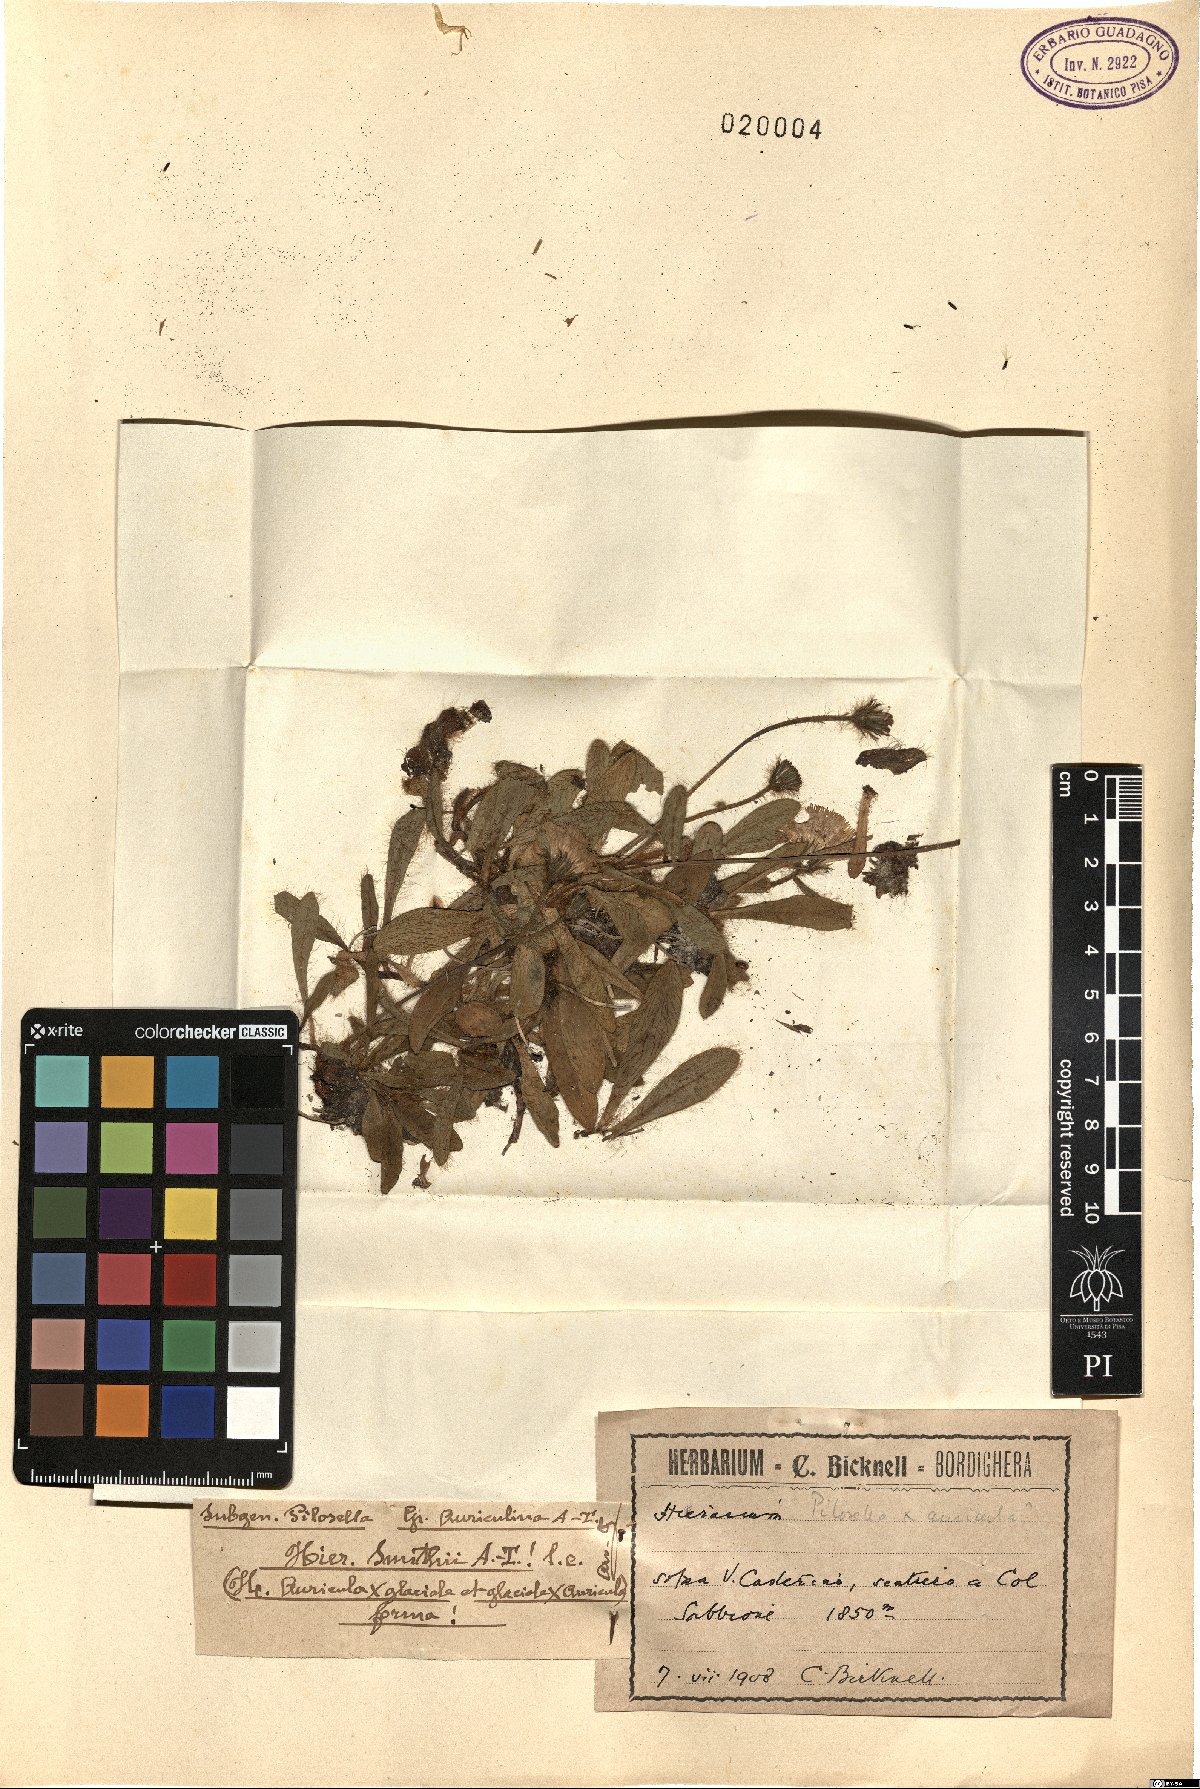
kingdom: Plantae
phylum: Tracheophyta
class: Magnoliopsida
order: Asterales
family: Asteraceae
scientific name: Asteraceae
